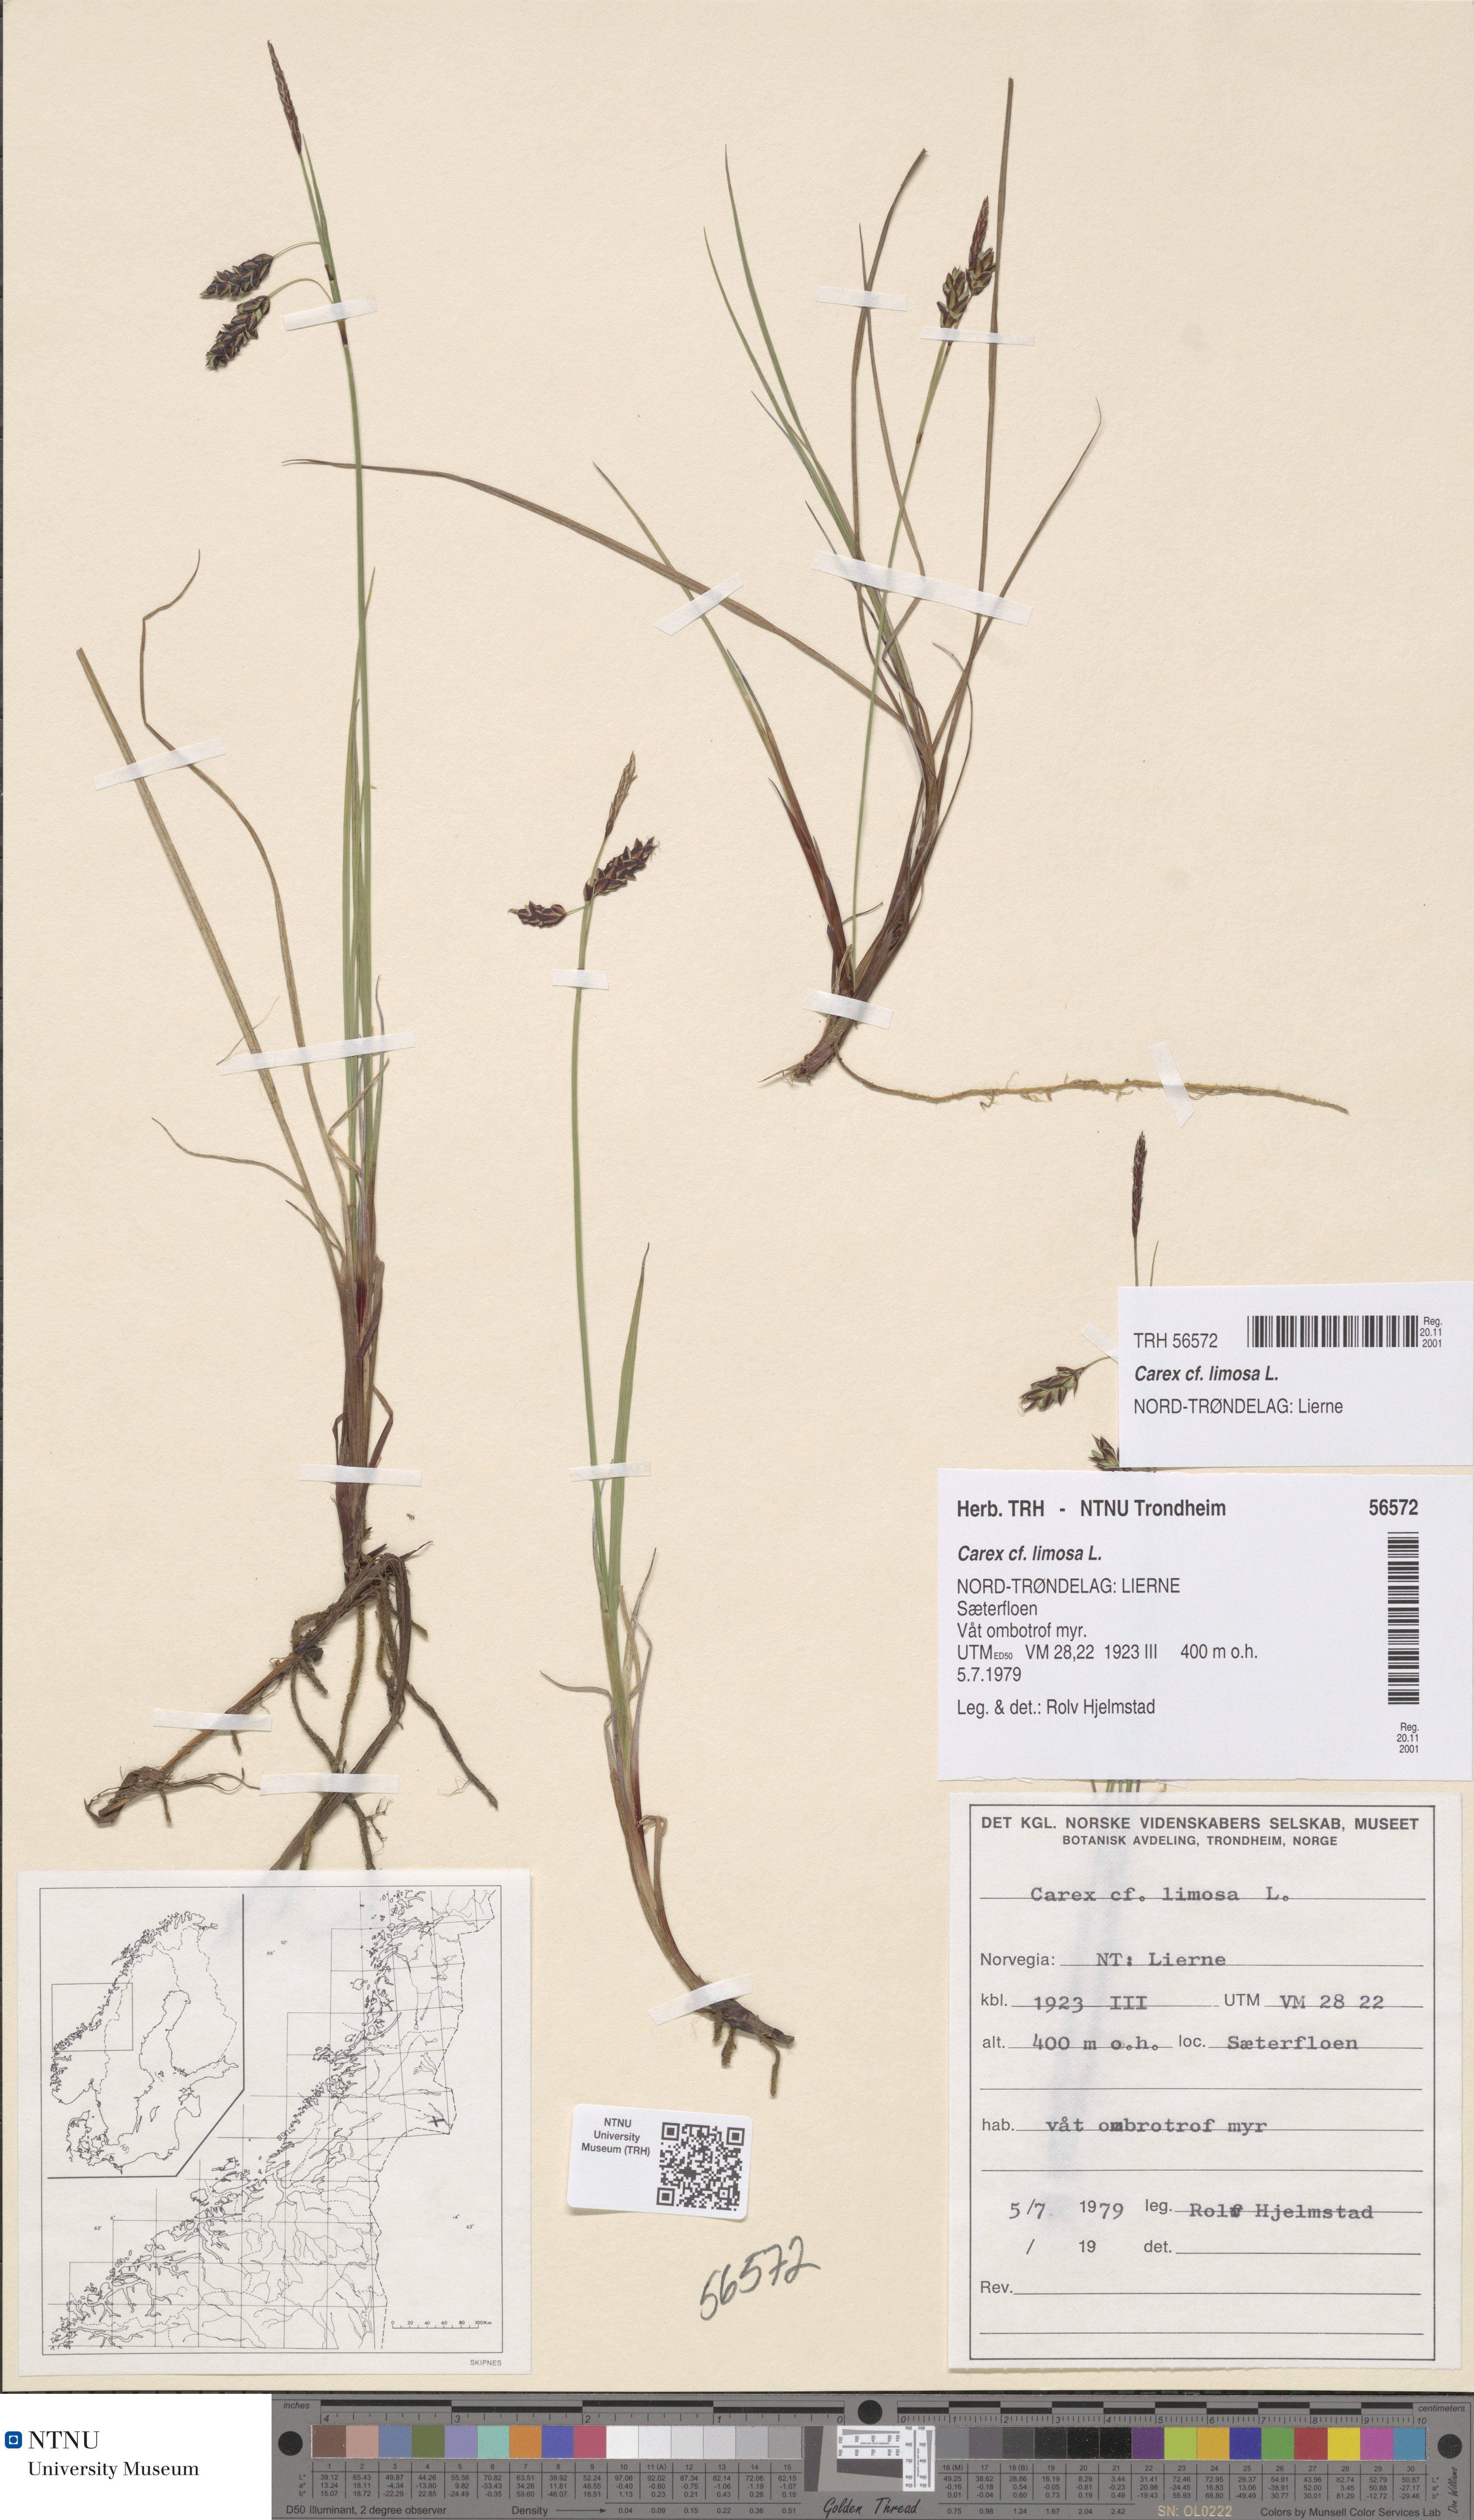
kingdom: Plantae
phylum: Tracheophyta
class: Liliopsida
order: Poales
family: Cyperaceae
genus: Carex
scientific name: Carex limosa
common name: Bog sedge
